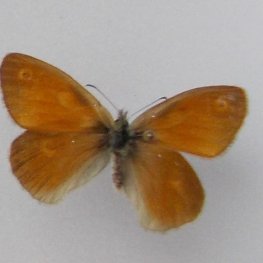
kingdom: Animalia
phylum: Arthropoda
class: Insecta
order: Lepidoptera
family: Nymphalidae
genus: Coenonympha
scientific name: Coenonympha tullia
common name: Large Heath
